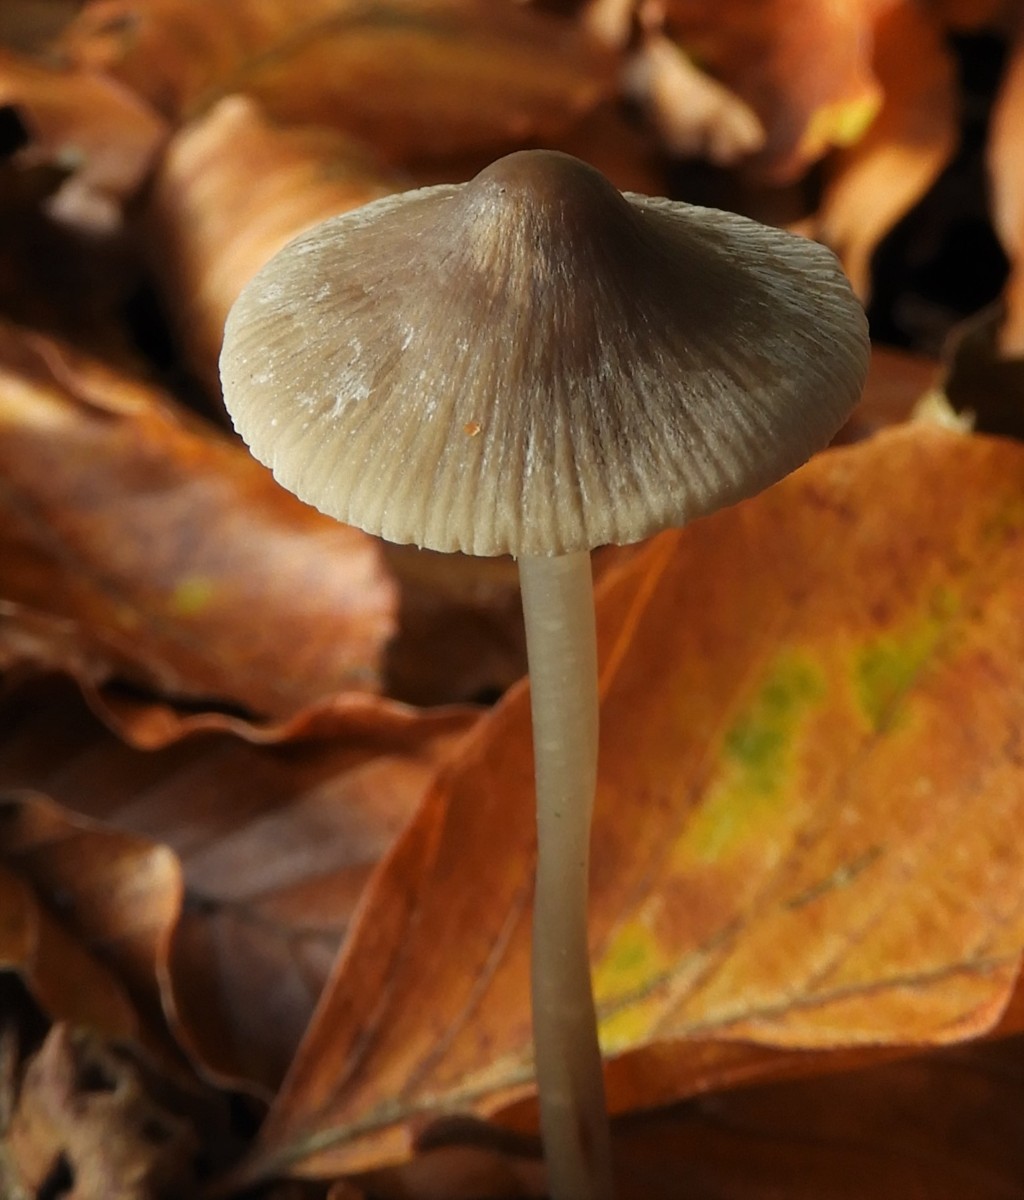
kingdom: Fungi
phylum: Basidiomycota
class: Agaricomycetes
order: Agaricales
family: Mycenaceae
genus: Mycena
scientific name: Mycena polygramma
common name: mangestribet huesvamp
